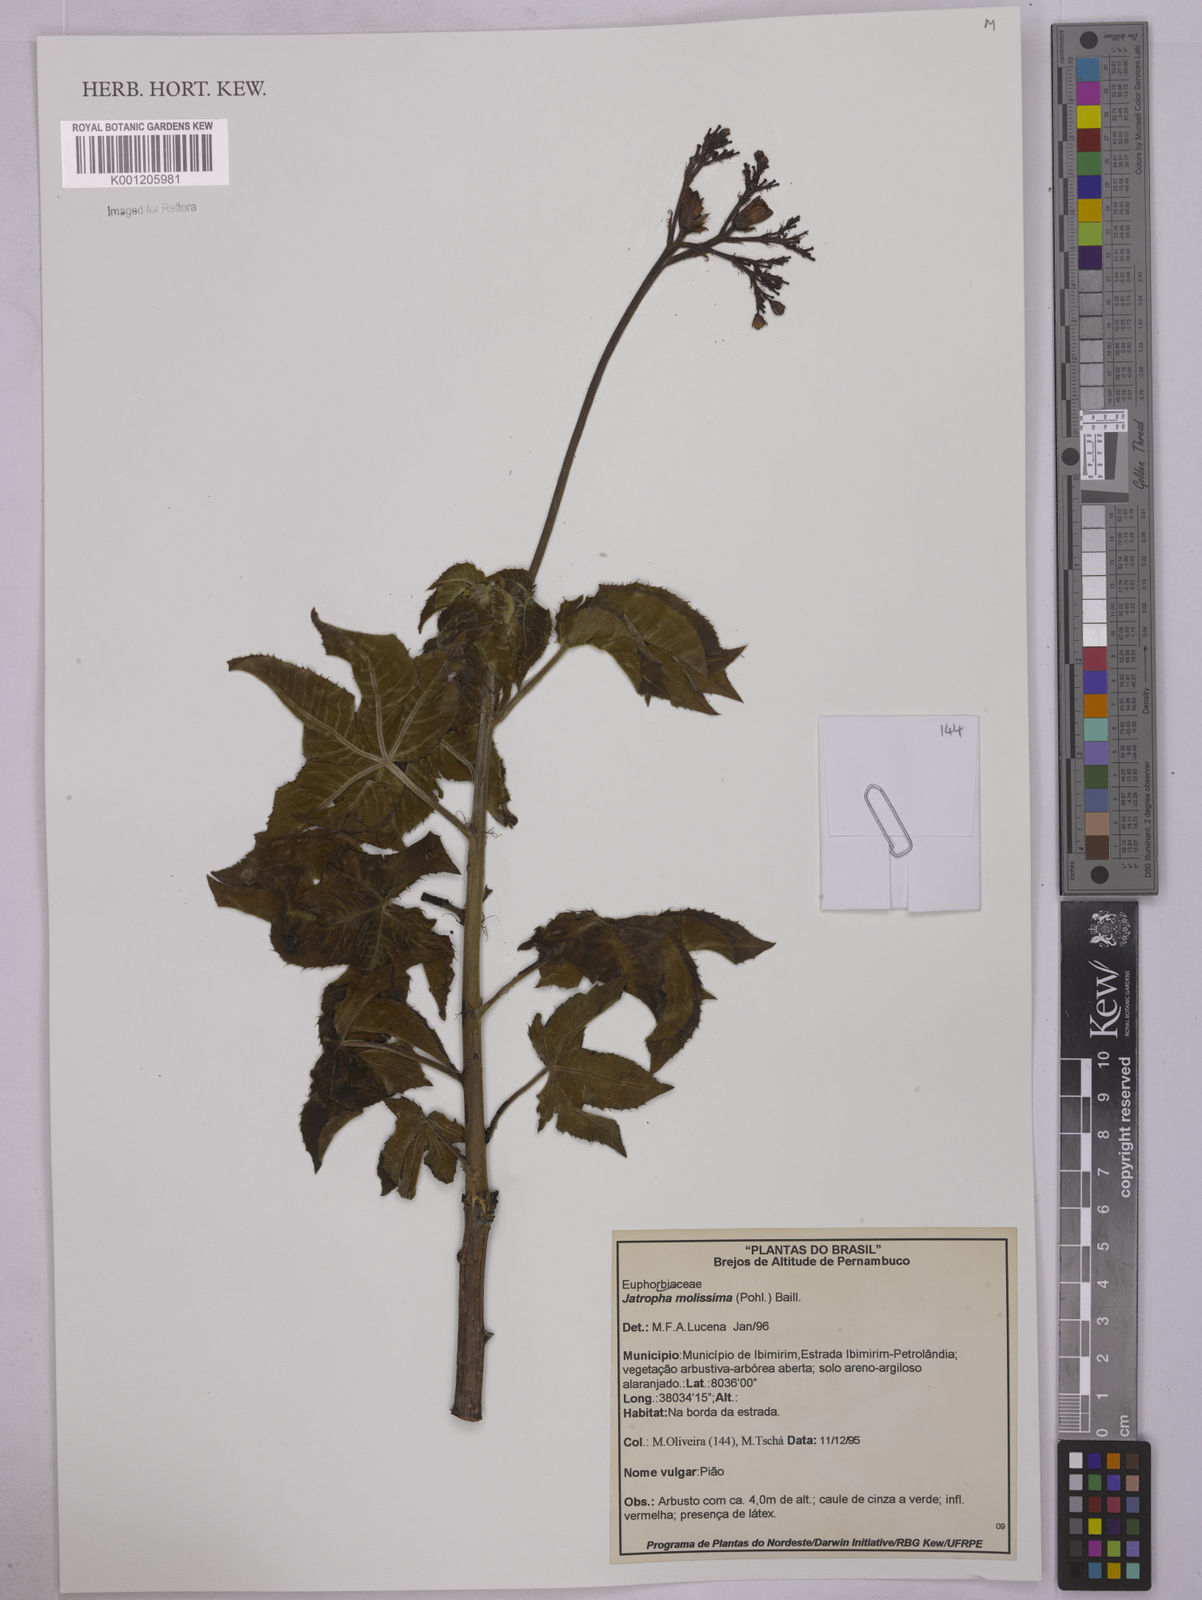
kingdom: Plantae
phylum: Tracheophyta
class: Magnoliopsida
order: Malpighiales
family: Euphorbiaceae
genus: Jatropha
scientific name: Jatropha mollissima
